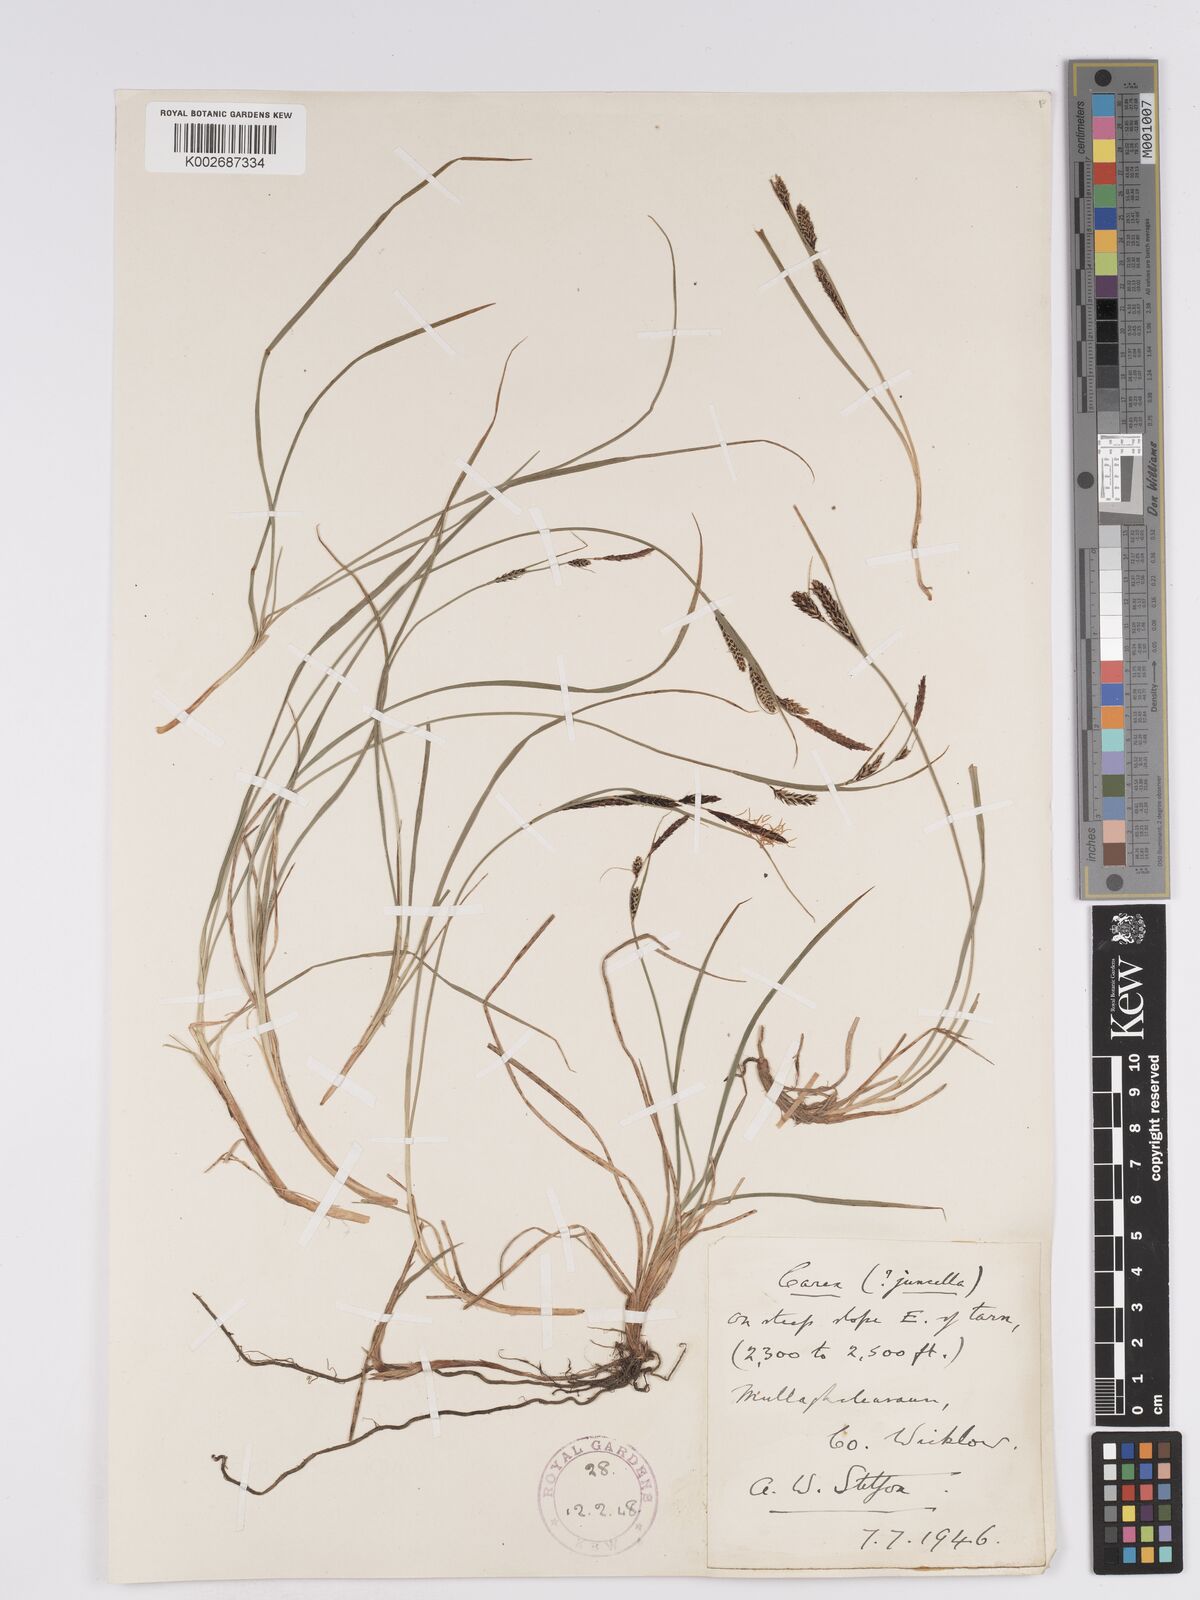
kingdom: Plantae
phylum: Tracheophyta
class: Liliopsida
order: Poales
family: Cyperaceae
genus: Carex
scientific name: Carex nigra
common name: Common sedge
